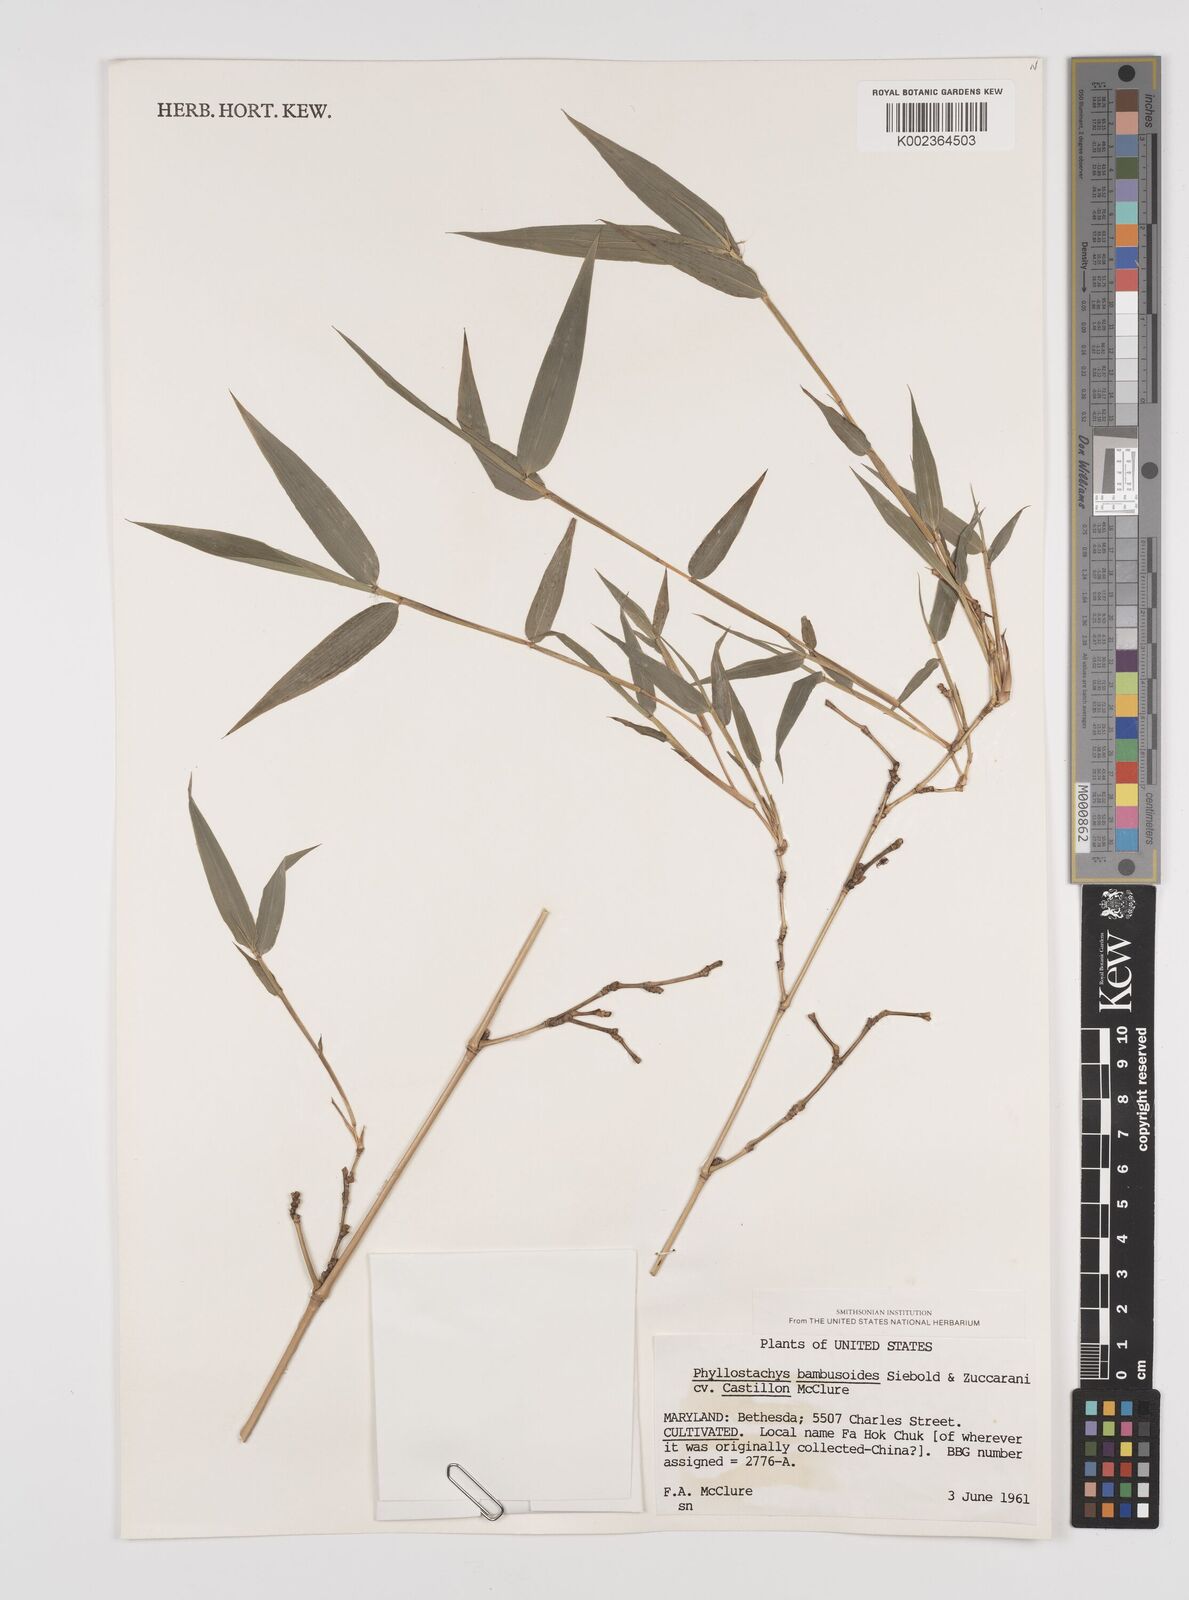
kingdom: Plantae
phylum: Tracheophyta
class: Liliopsida
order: Poales
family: Poaceae
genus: Phyllostachys
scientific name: Phyllostachys reticulata
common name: Bamboo
